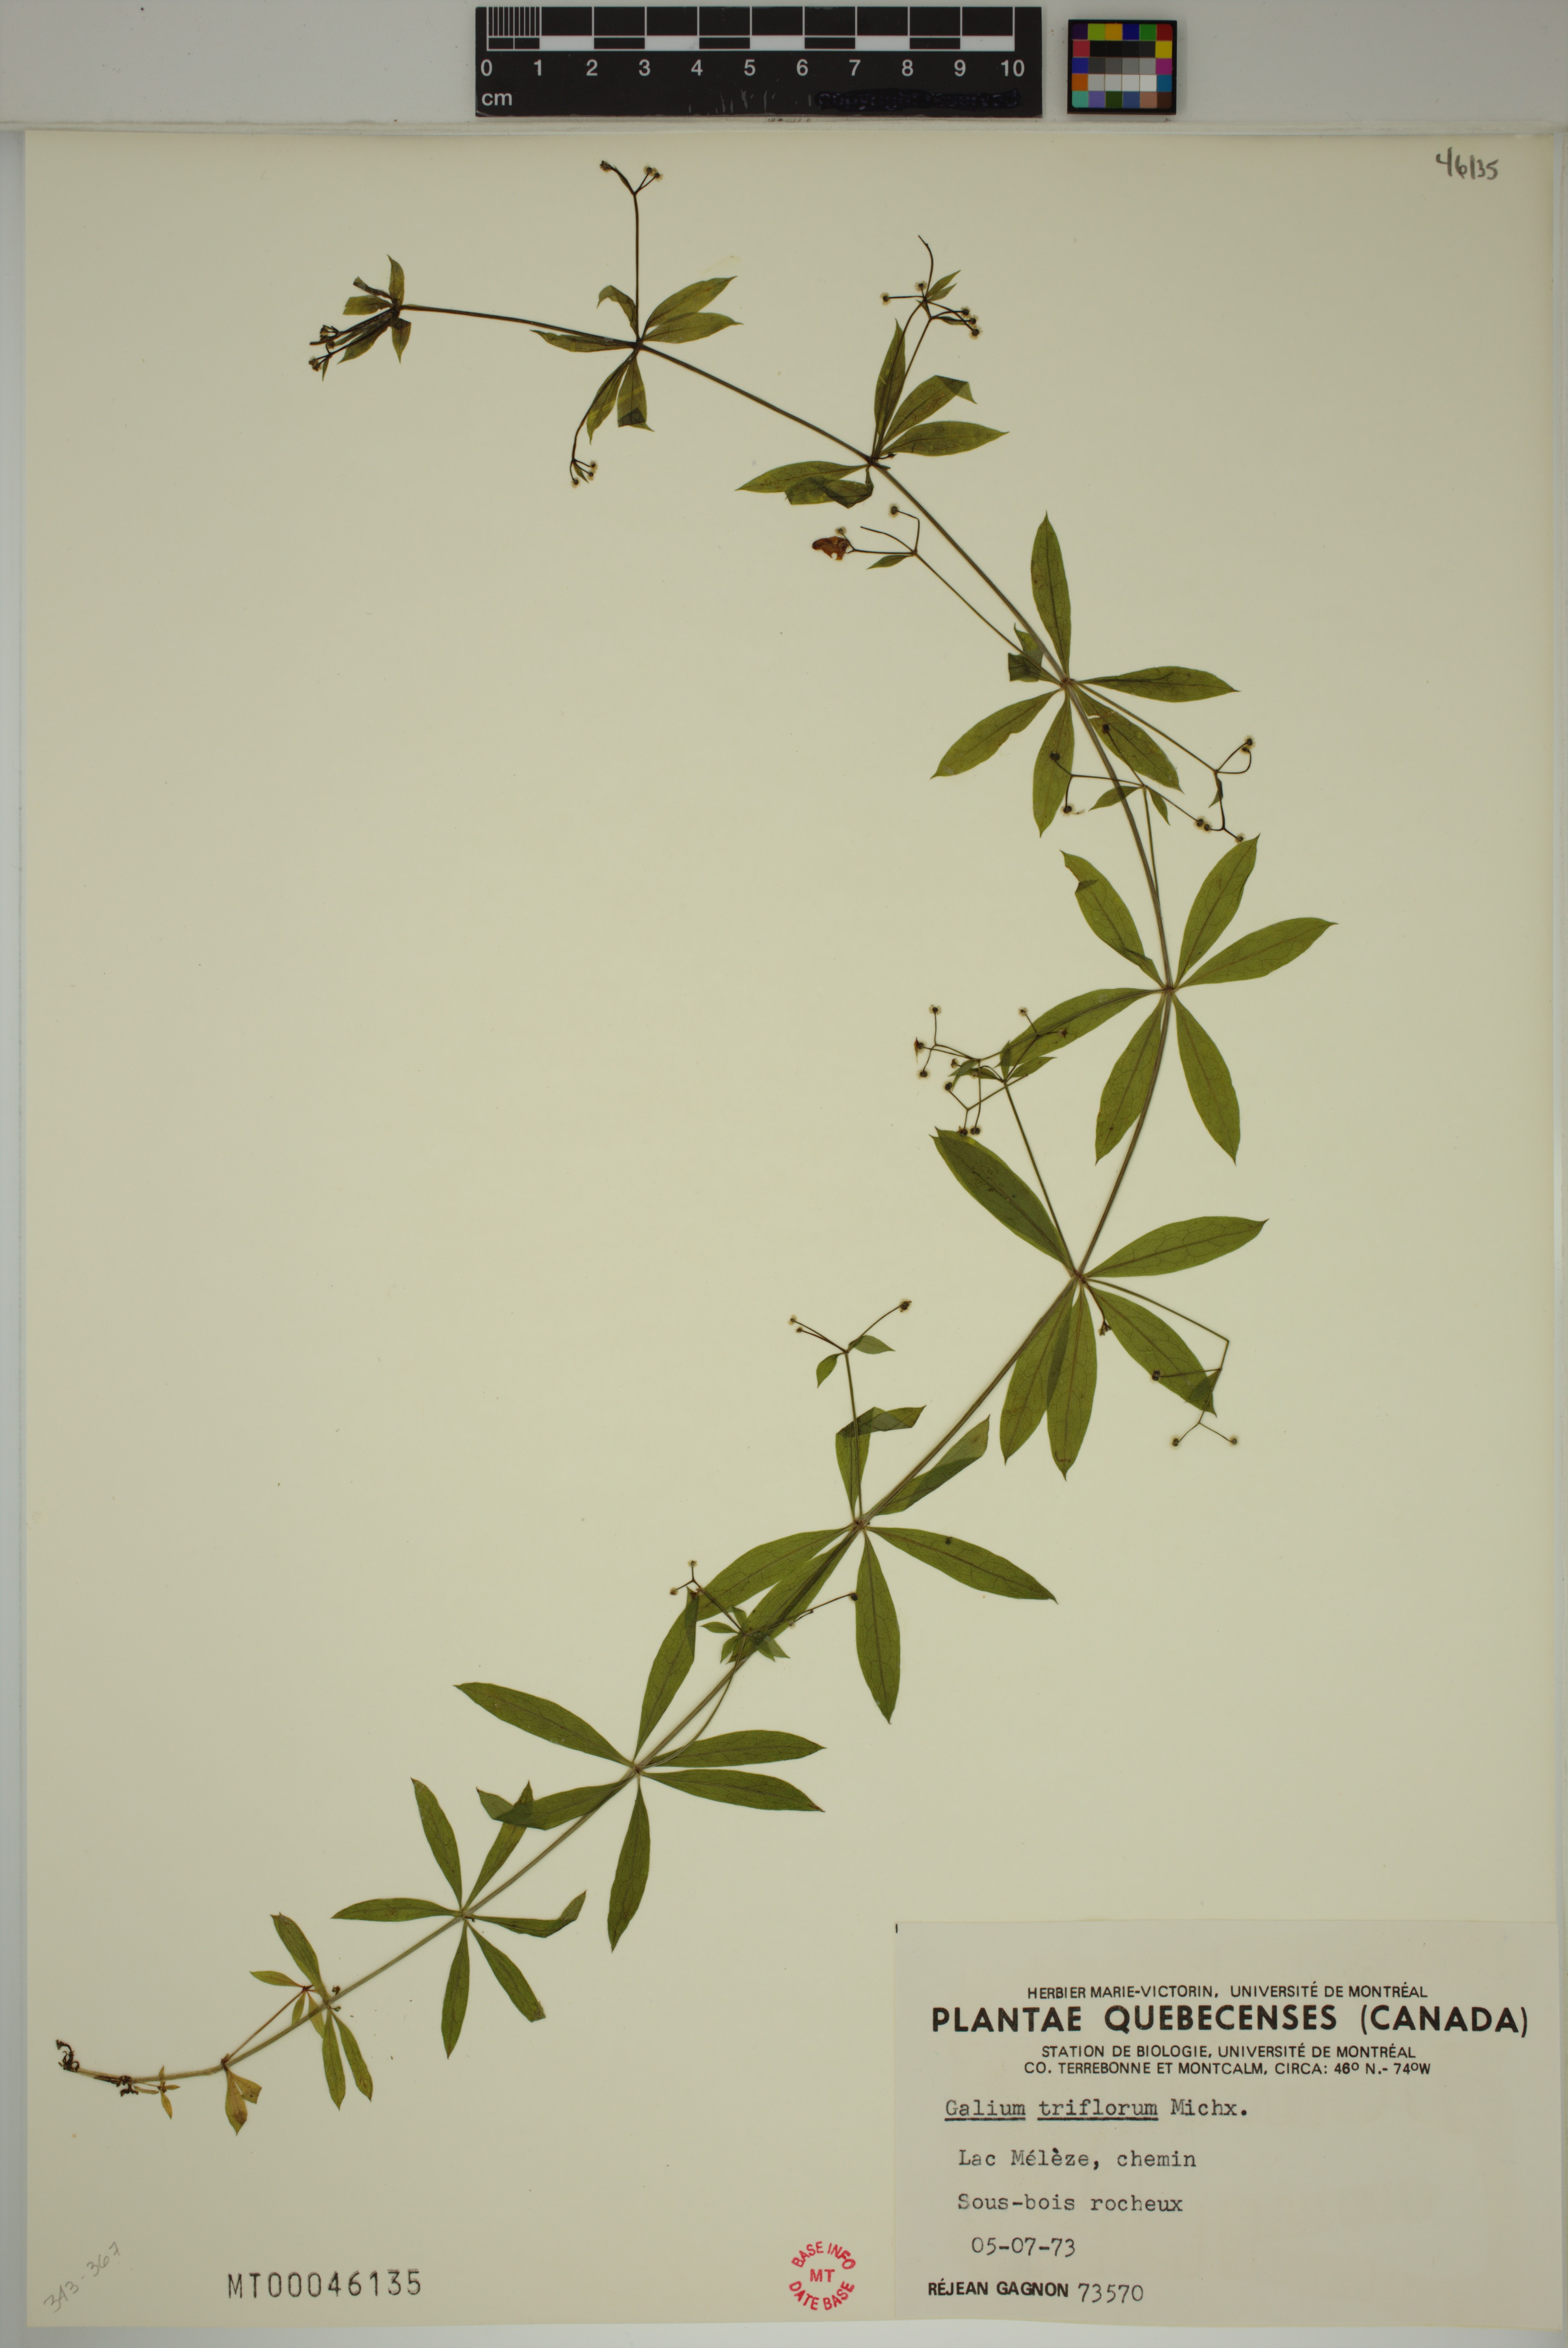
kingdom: Plantae
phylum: Tracheophyta
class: Magnoliopsida
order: Gentianales
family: Rubiaceae
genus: Galium
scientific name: Galium triflorum
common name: Fragrant bedstraw
